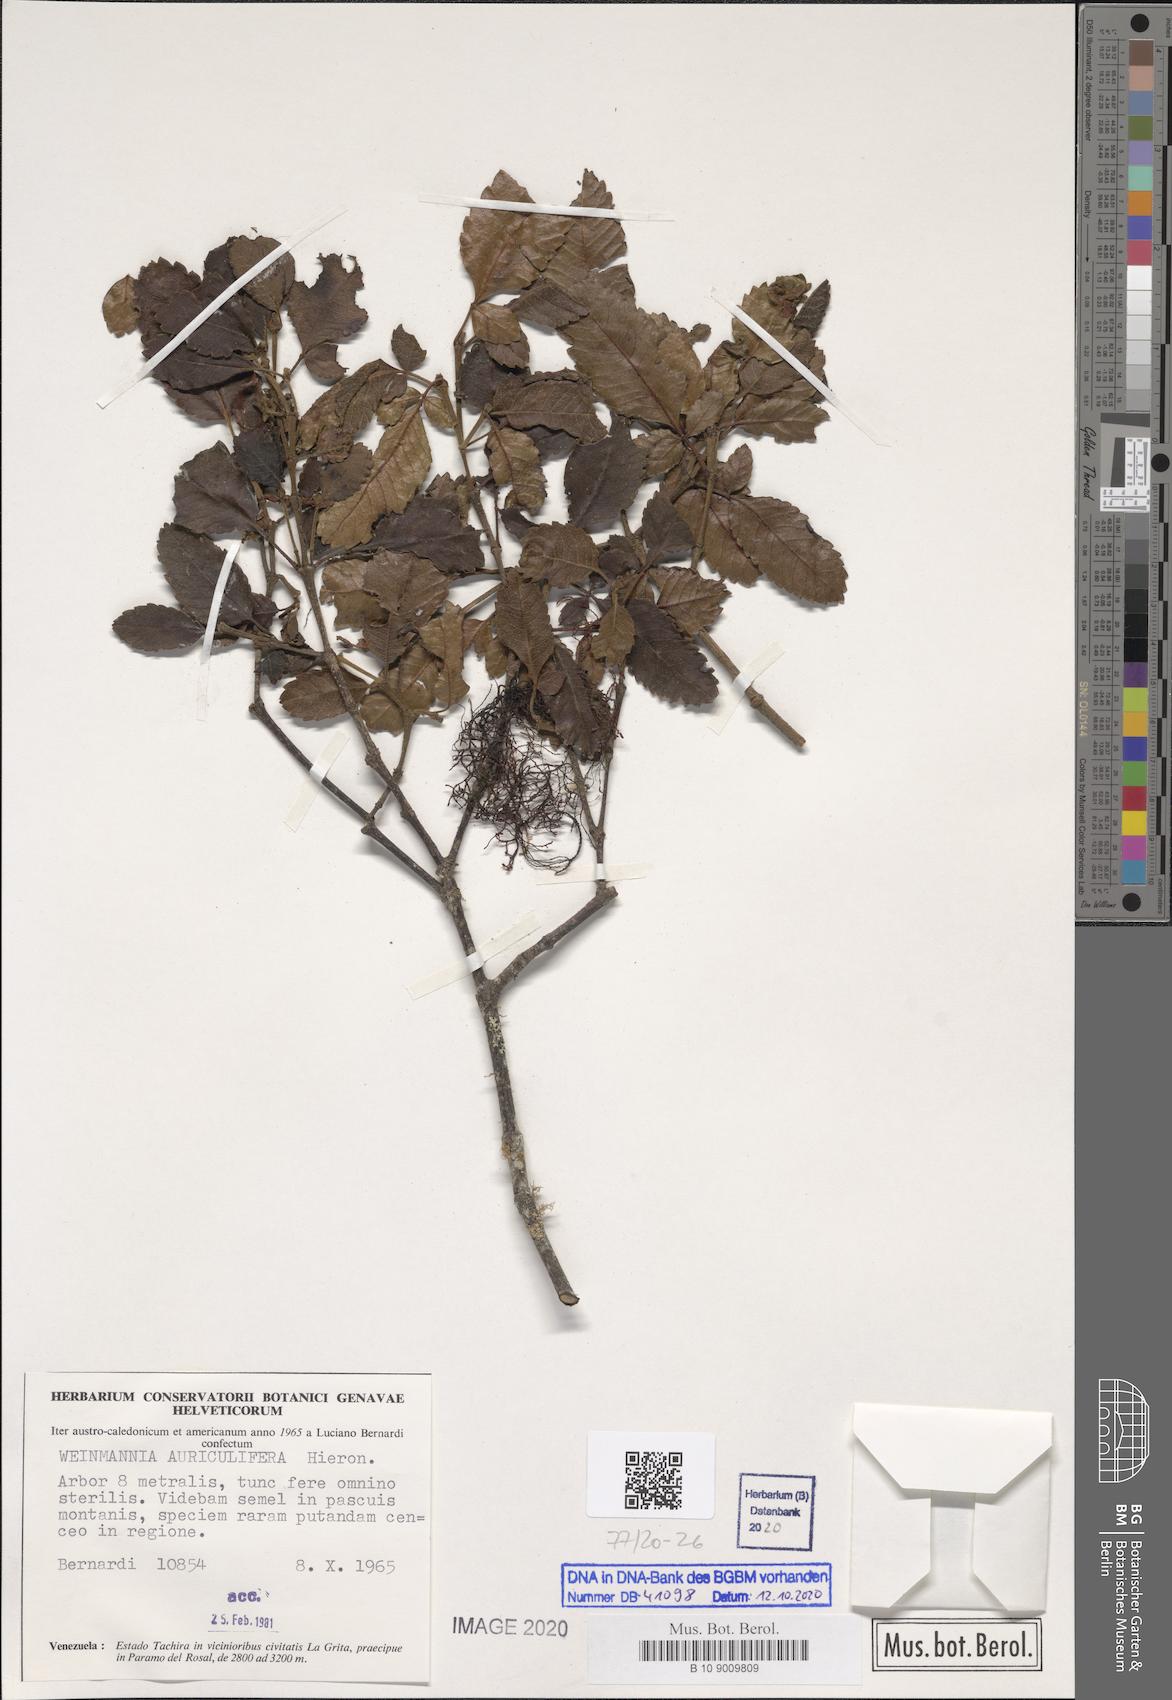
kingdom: Plantae
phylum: Tracheophyta
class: Magnoliopsida
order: Oxalidales
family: Cunoniaceae
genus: Weinmannia
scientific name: Weinmannia cordata
